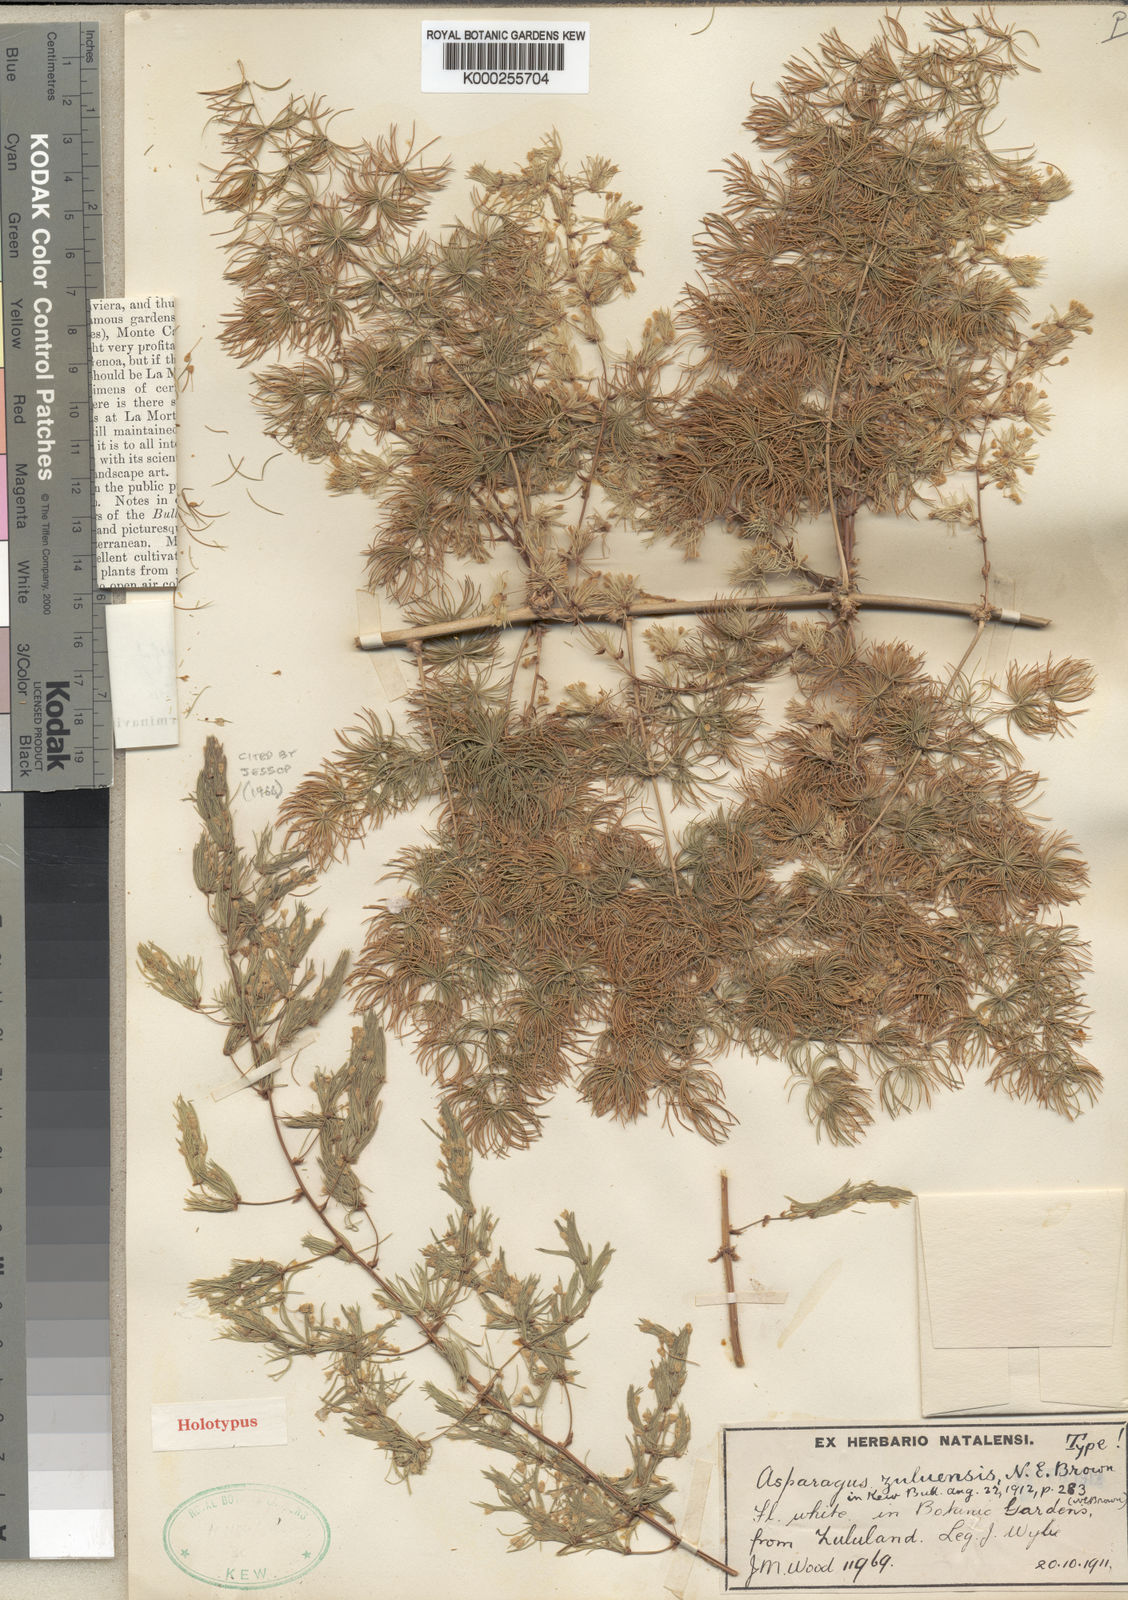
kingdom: Plantae
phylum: Tracheophyta
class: Liliopsida
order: Asparagales
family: Asparagaceae
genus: Asparagus
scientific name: Asparagus macowanii
